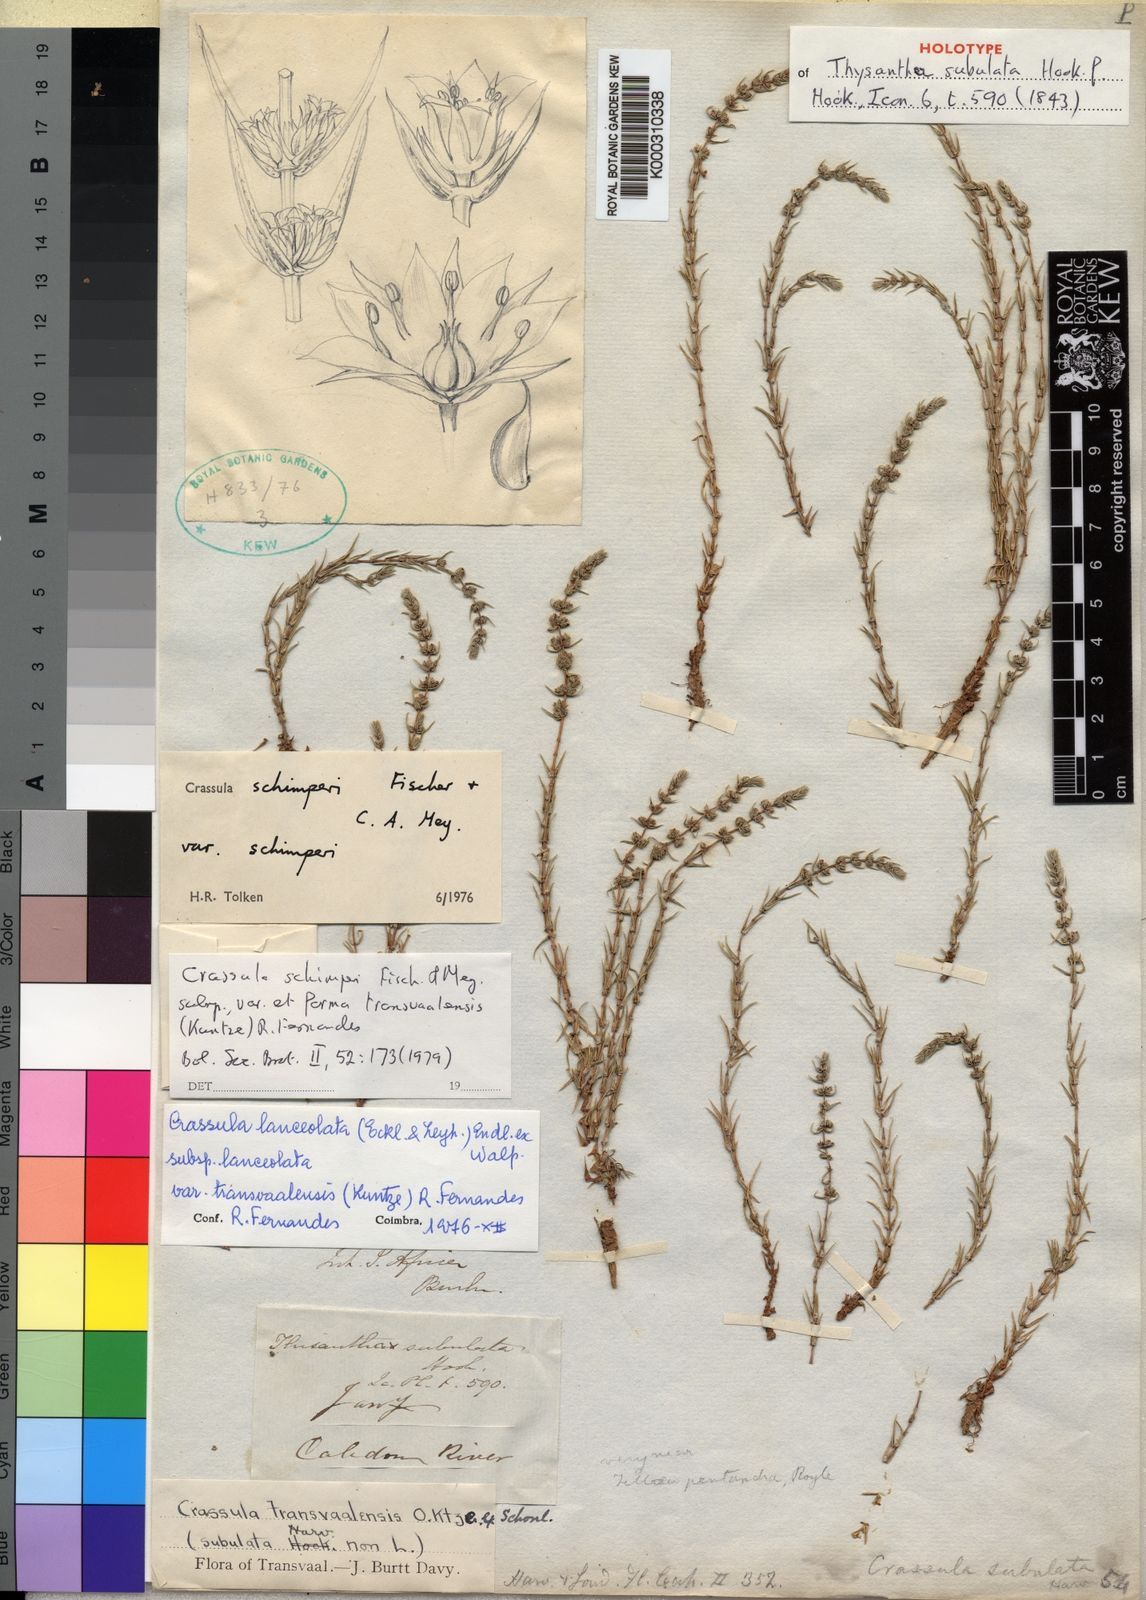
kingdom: Plantae
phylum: Tracheophyta
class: Magnoliopsida
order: Saxifragales
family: Crassulaceae
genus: Crassula
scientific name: Crassula schimperi
